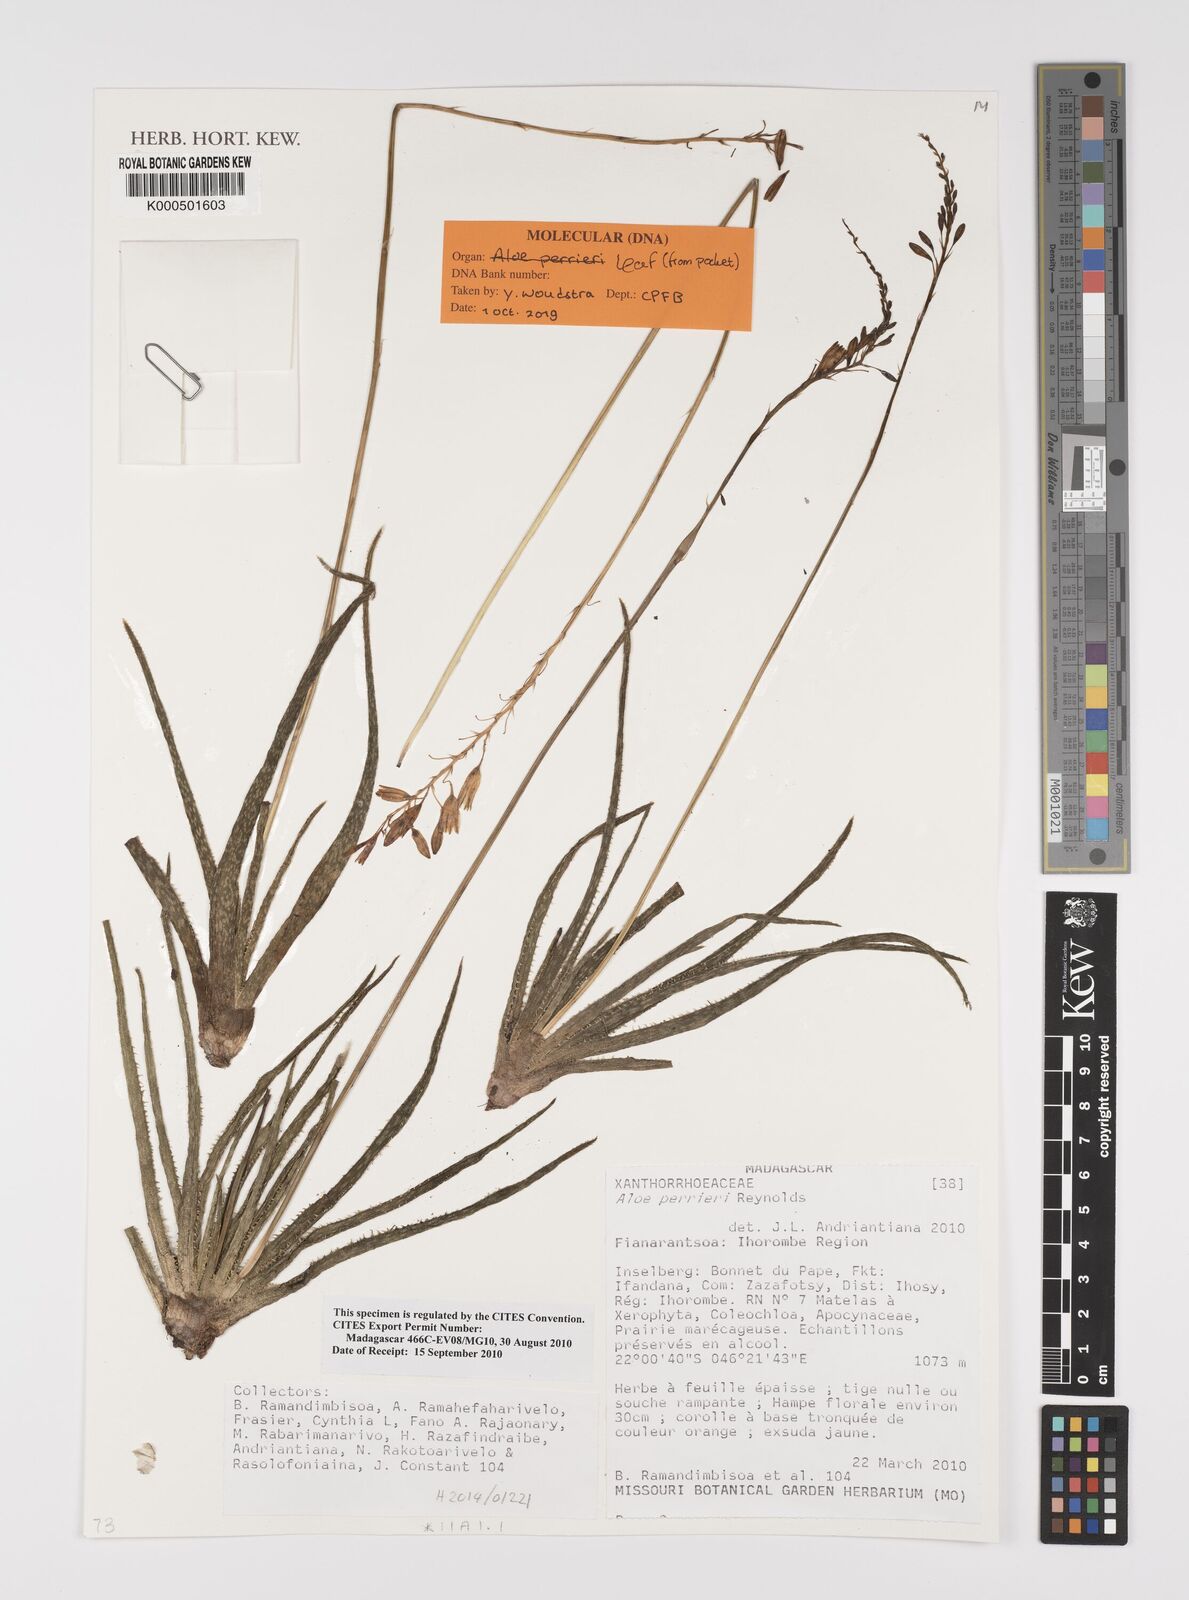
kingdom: Plantae
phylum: Tracheophyta
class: Liliopsida
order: Asparagales
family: Asphodelaceae
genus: Aloe
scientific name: Aloe perrieri
